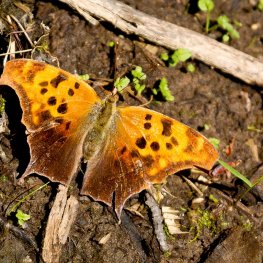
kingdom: Animalia
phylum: Arthropoda
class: Insecta
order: Lepidoptera
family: Nymphalidae
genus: Polygonia
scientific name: Polygonia interrogationis
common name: Question Mark
